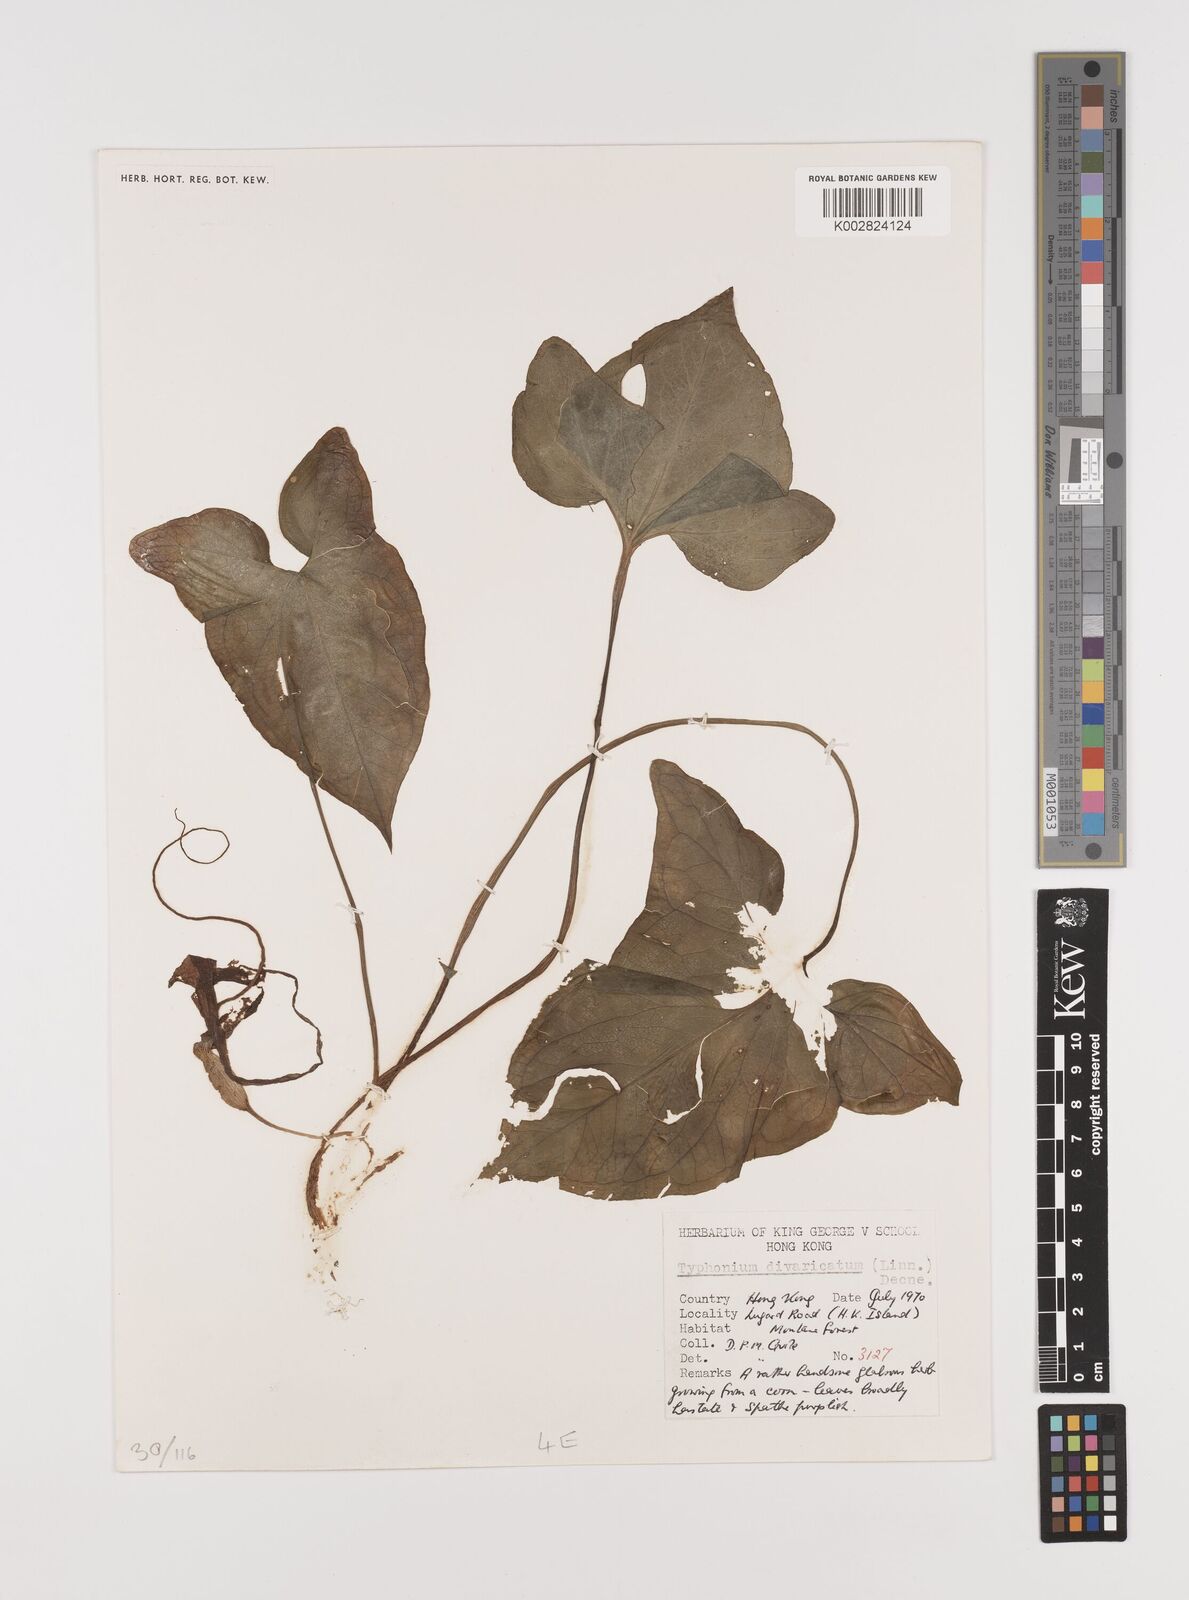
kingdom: Plantae
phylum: Tracheophyta
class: Liliopsida
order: Alismatales
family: Araceae
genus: Typhonium
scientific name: Typhonium roxburghii
